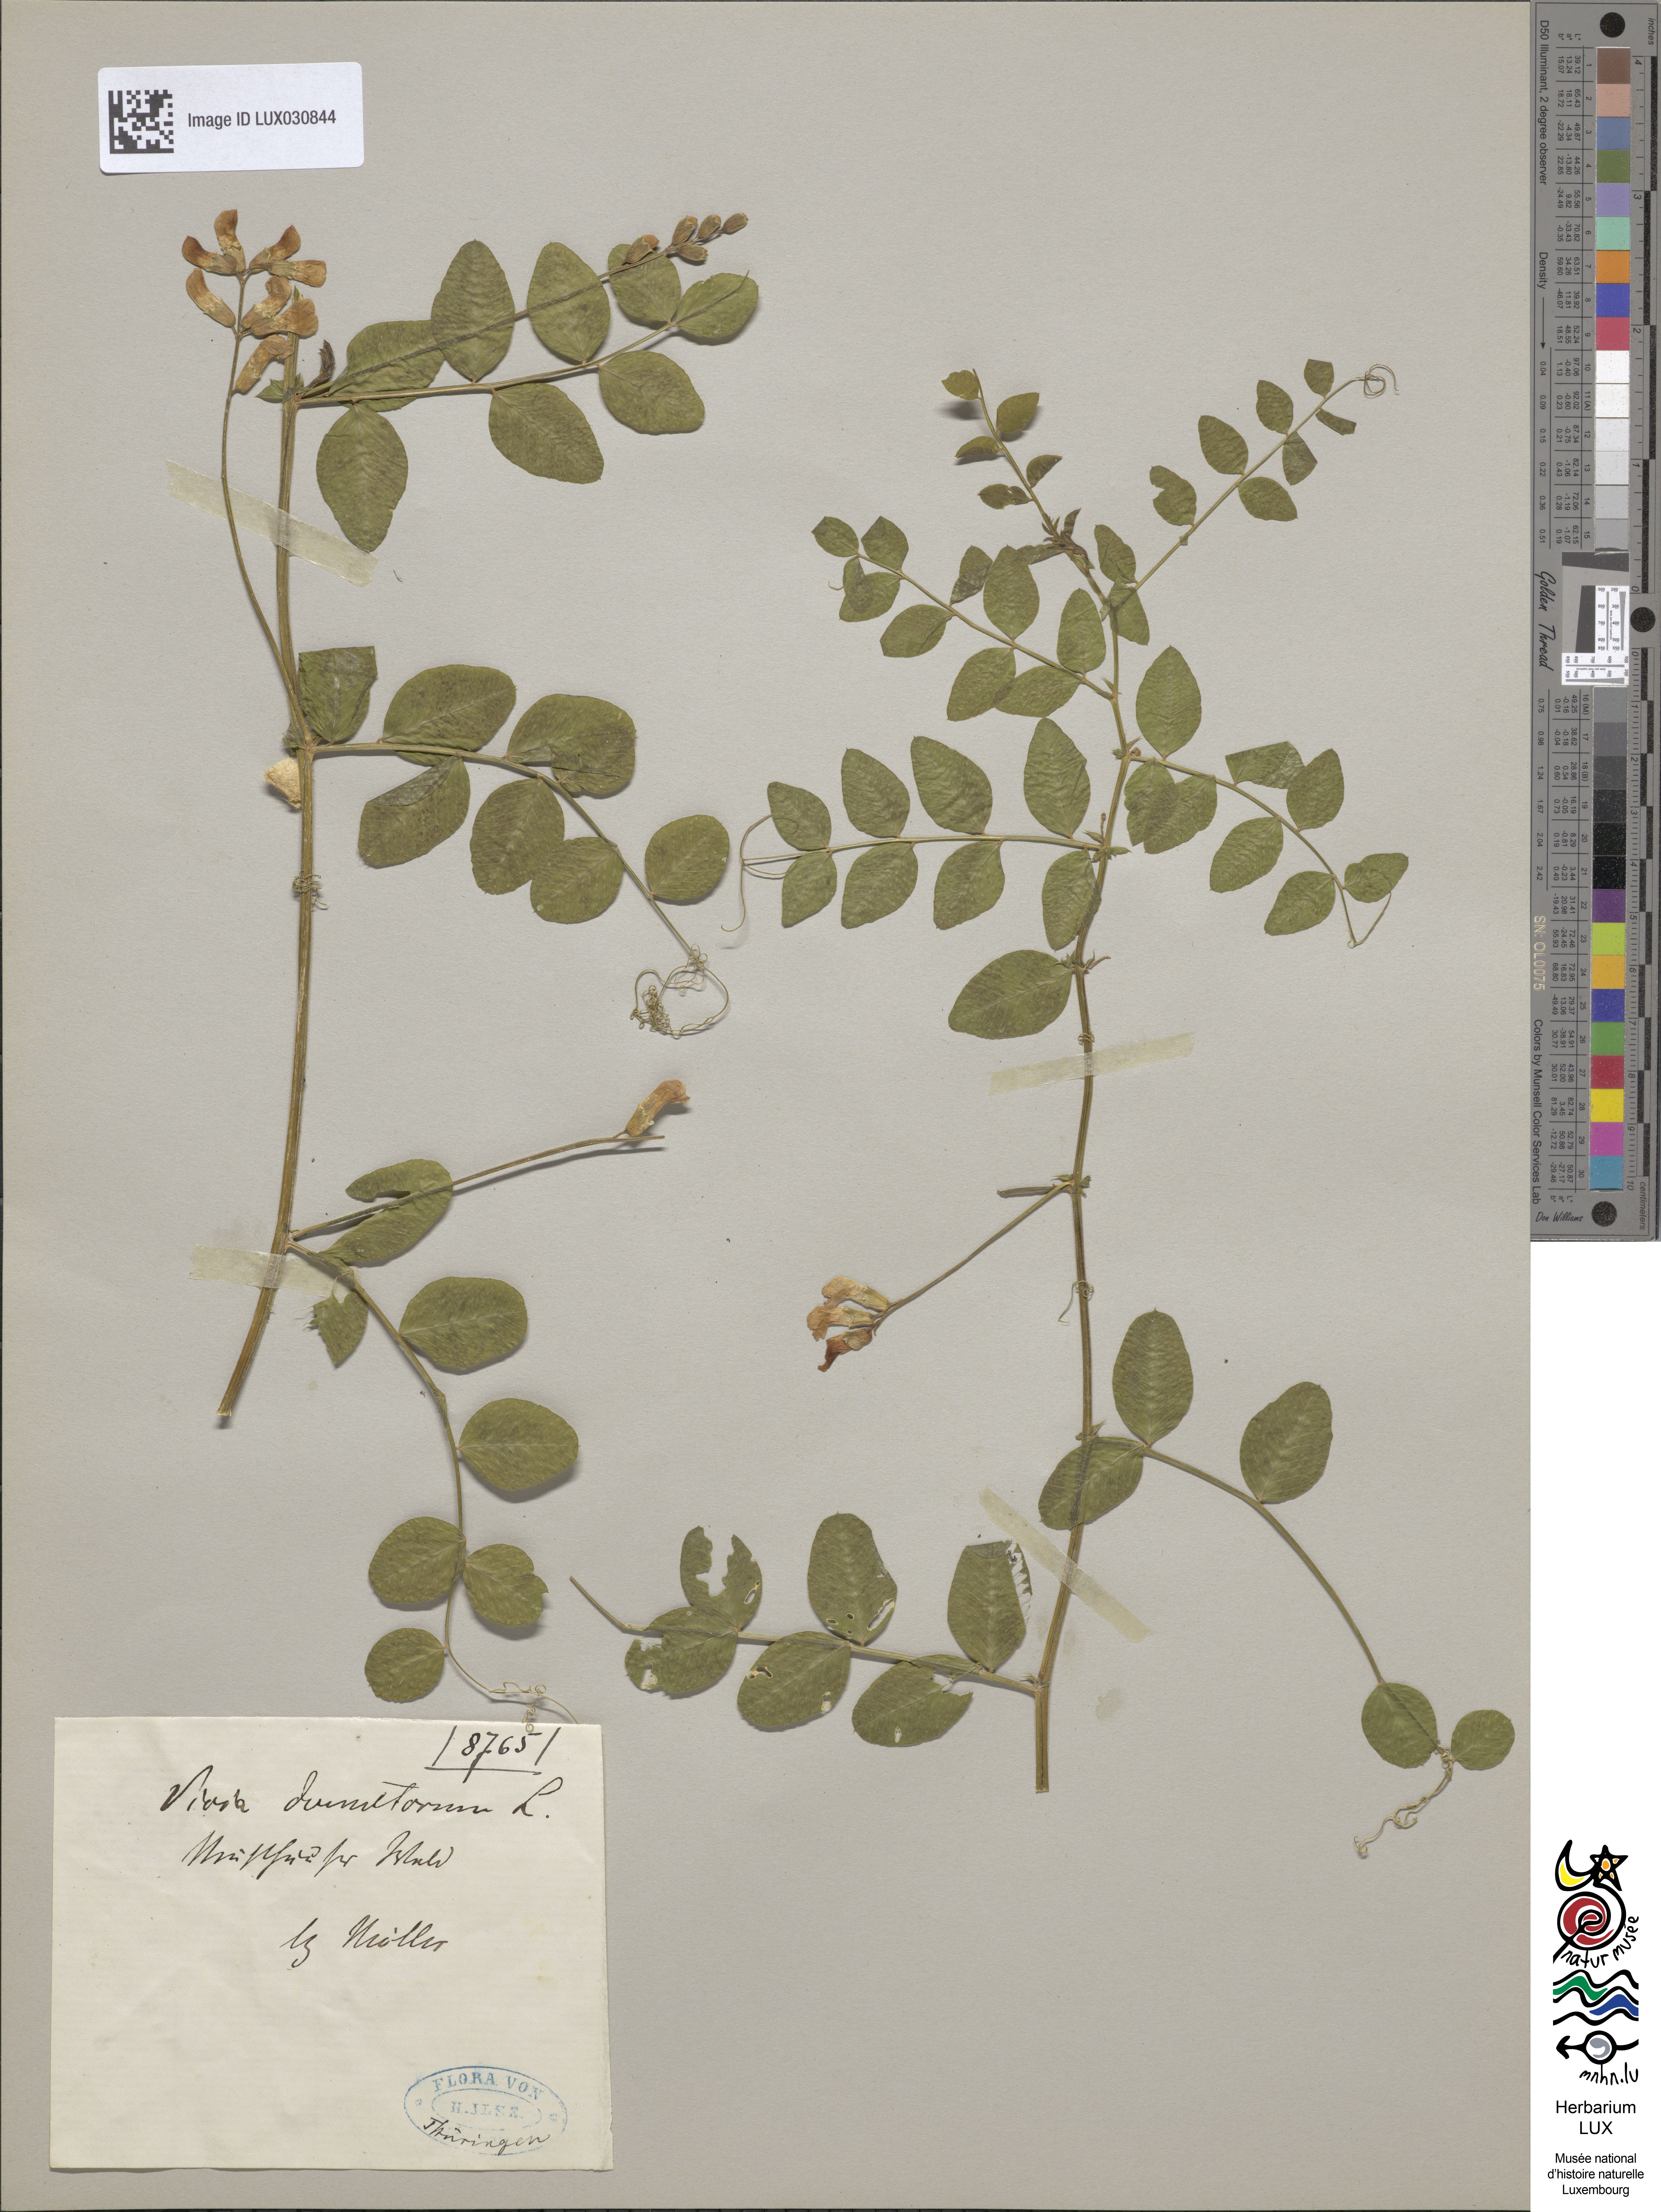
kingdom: Plantae
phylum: Tracheophyta
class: Magnoliopsida
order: Fabales
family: Fabaceae
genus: Vicia
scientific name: Vicia dumetorum
